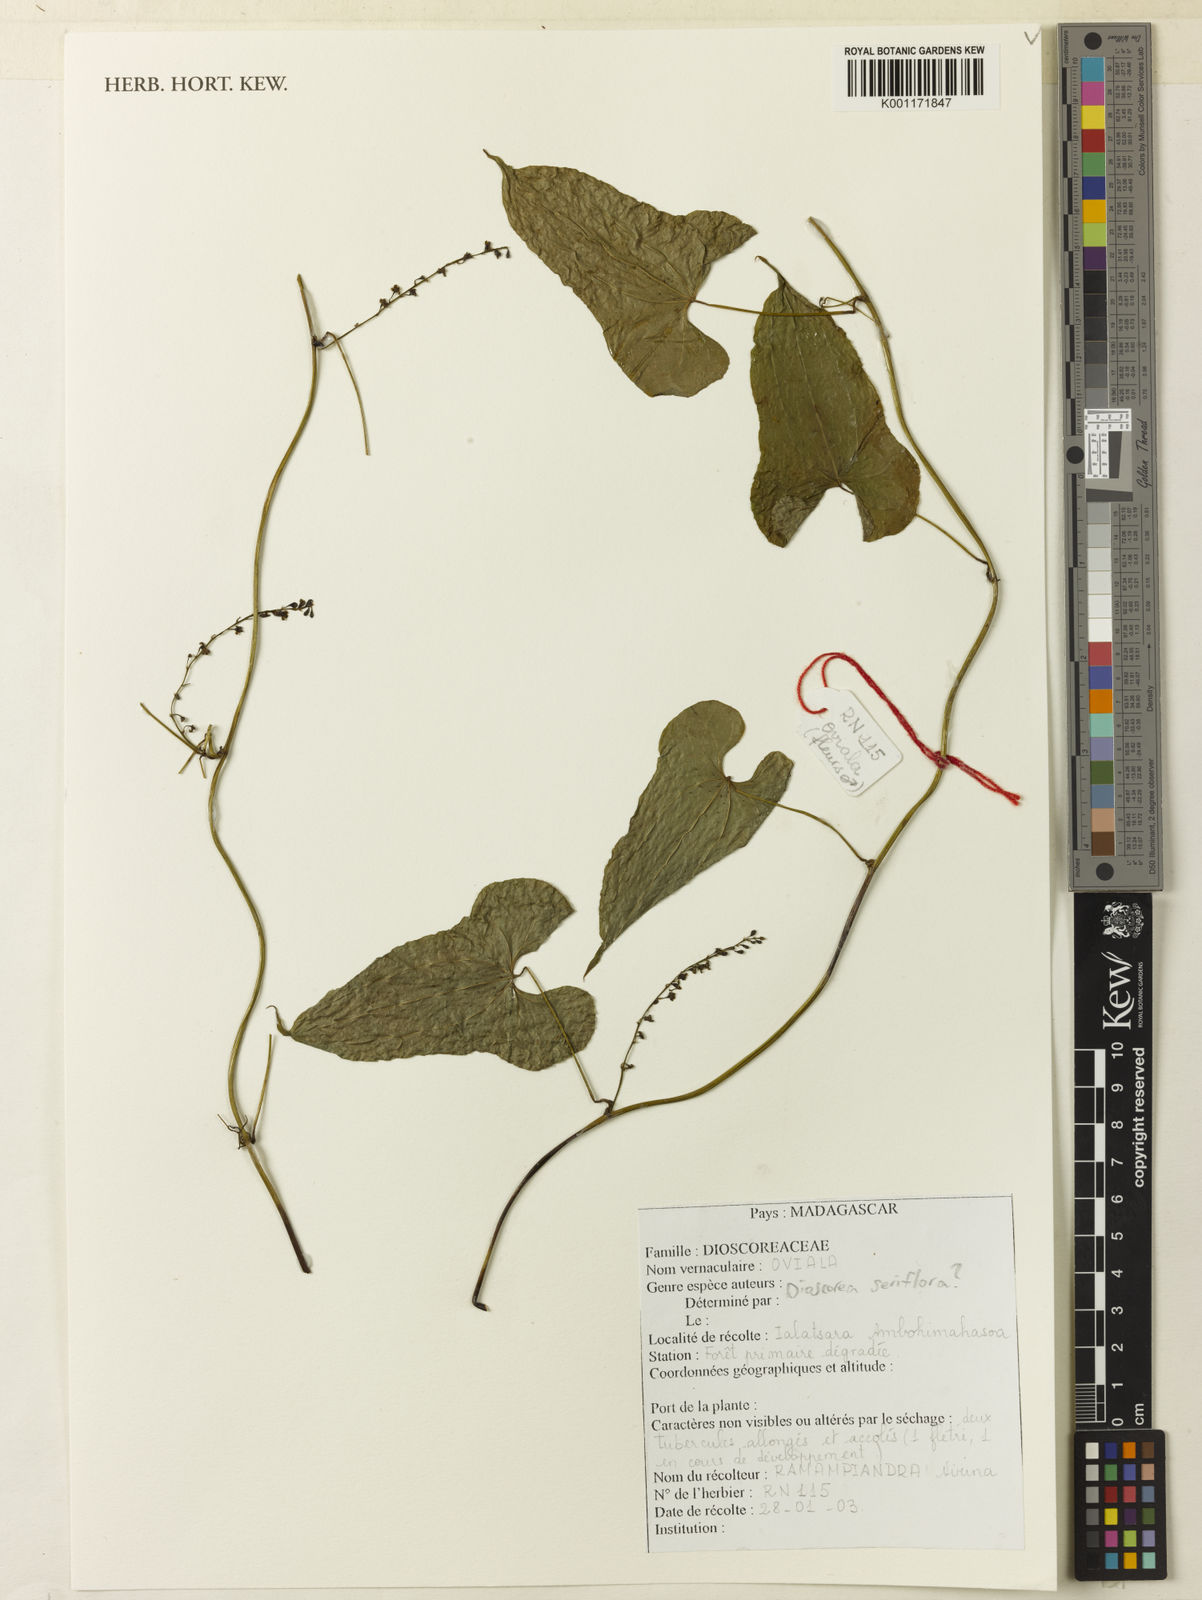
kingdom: Plantae
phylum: Tracheophyta
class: Liliopsida
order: Dioscoreales
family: Dioscoreaceae
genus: Dioscorea
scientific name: Dioscorea seriflora
